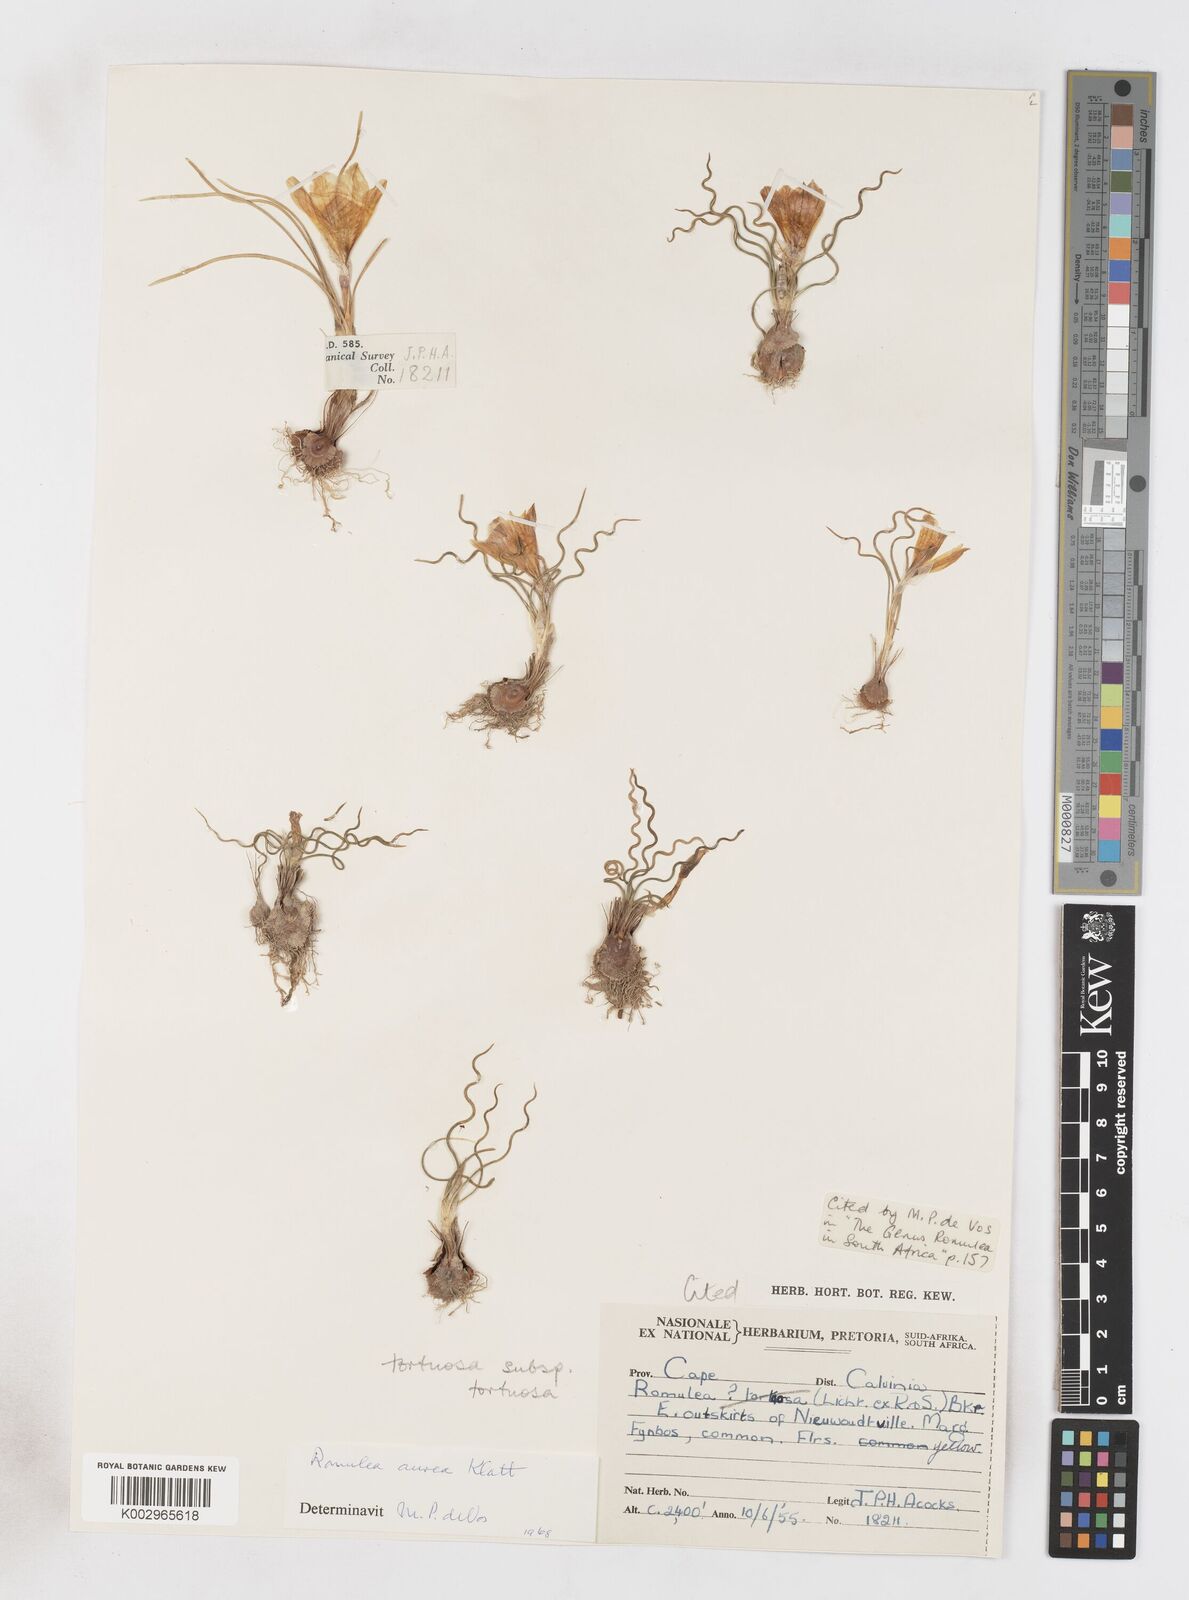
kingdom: Plantae
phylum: Tracheophyta
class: Liliopsida
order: Asparagales
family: Iridaceae
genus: Romulea
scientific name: Romulea tortuosa
